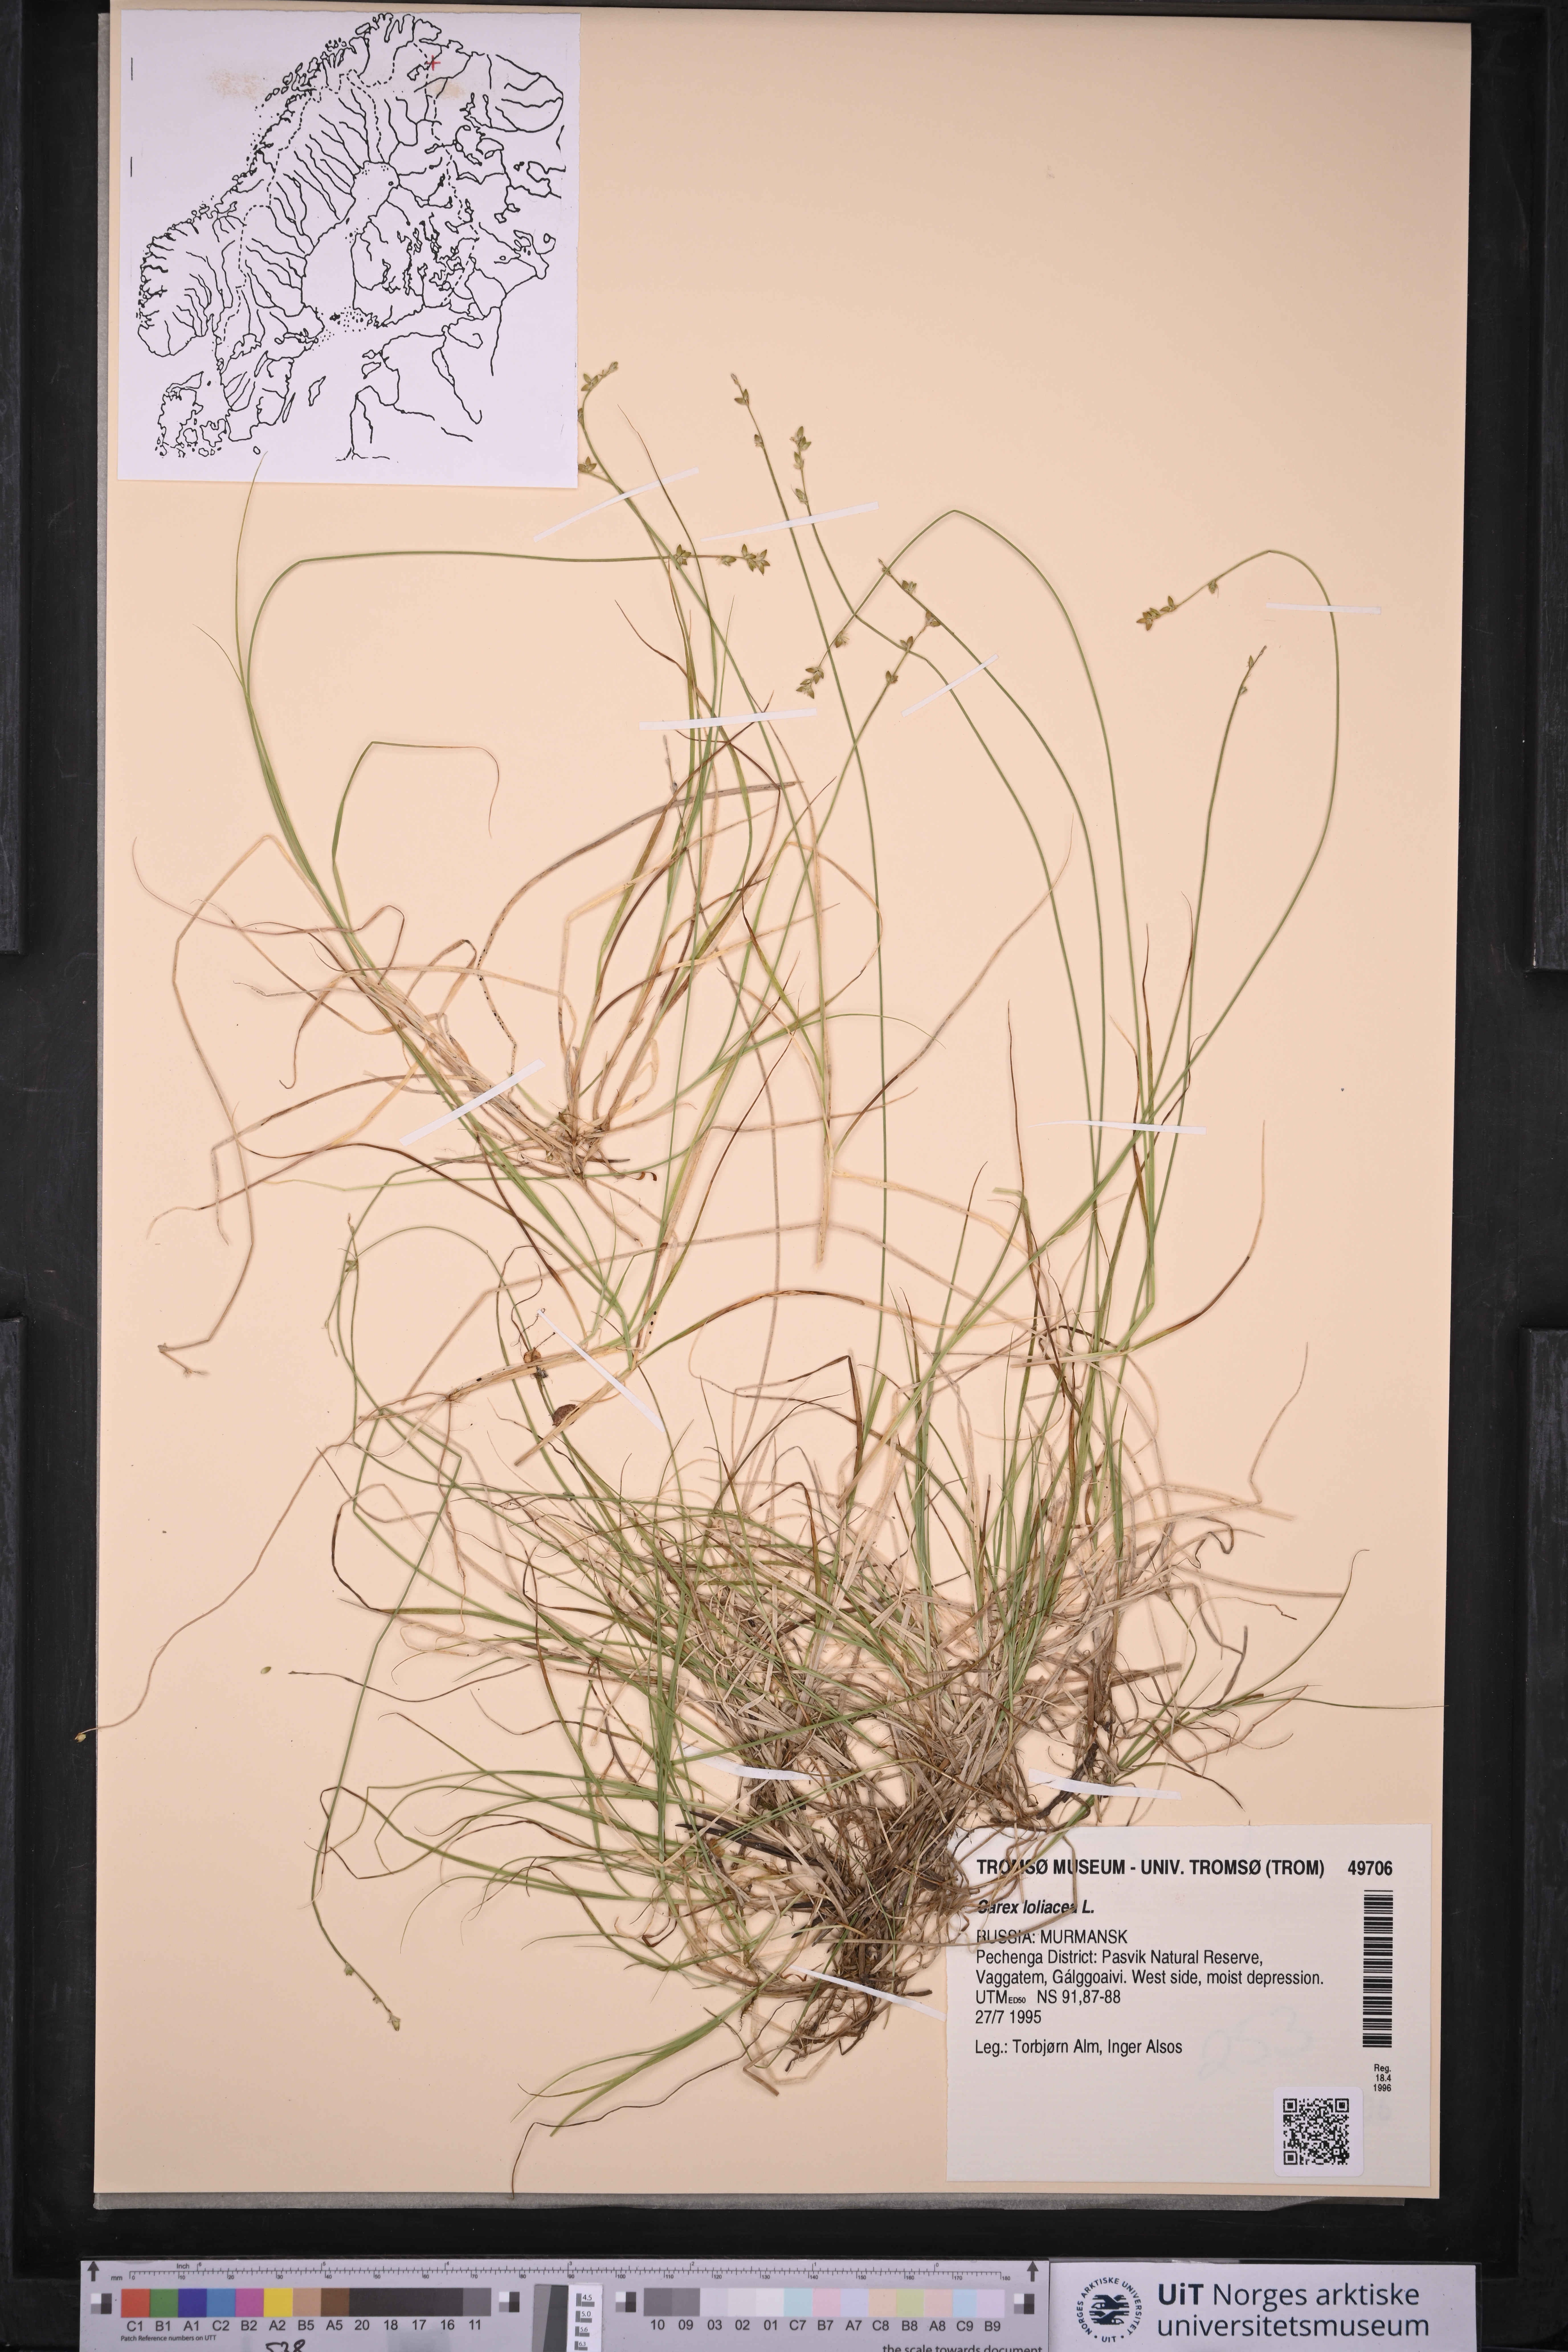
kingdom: Plantae
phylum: Tracheophyta
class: Liliopsida
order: Poales
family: Cyperaceae
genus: Carex
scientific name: Carex loliacea
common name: Ryegrass sedge
